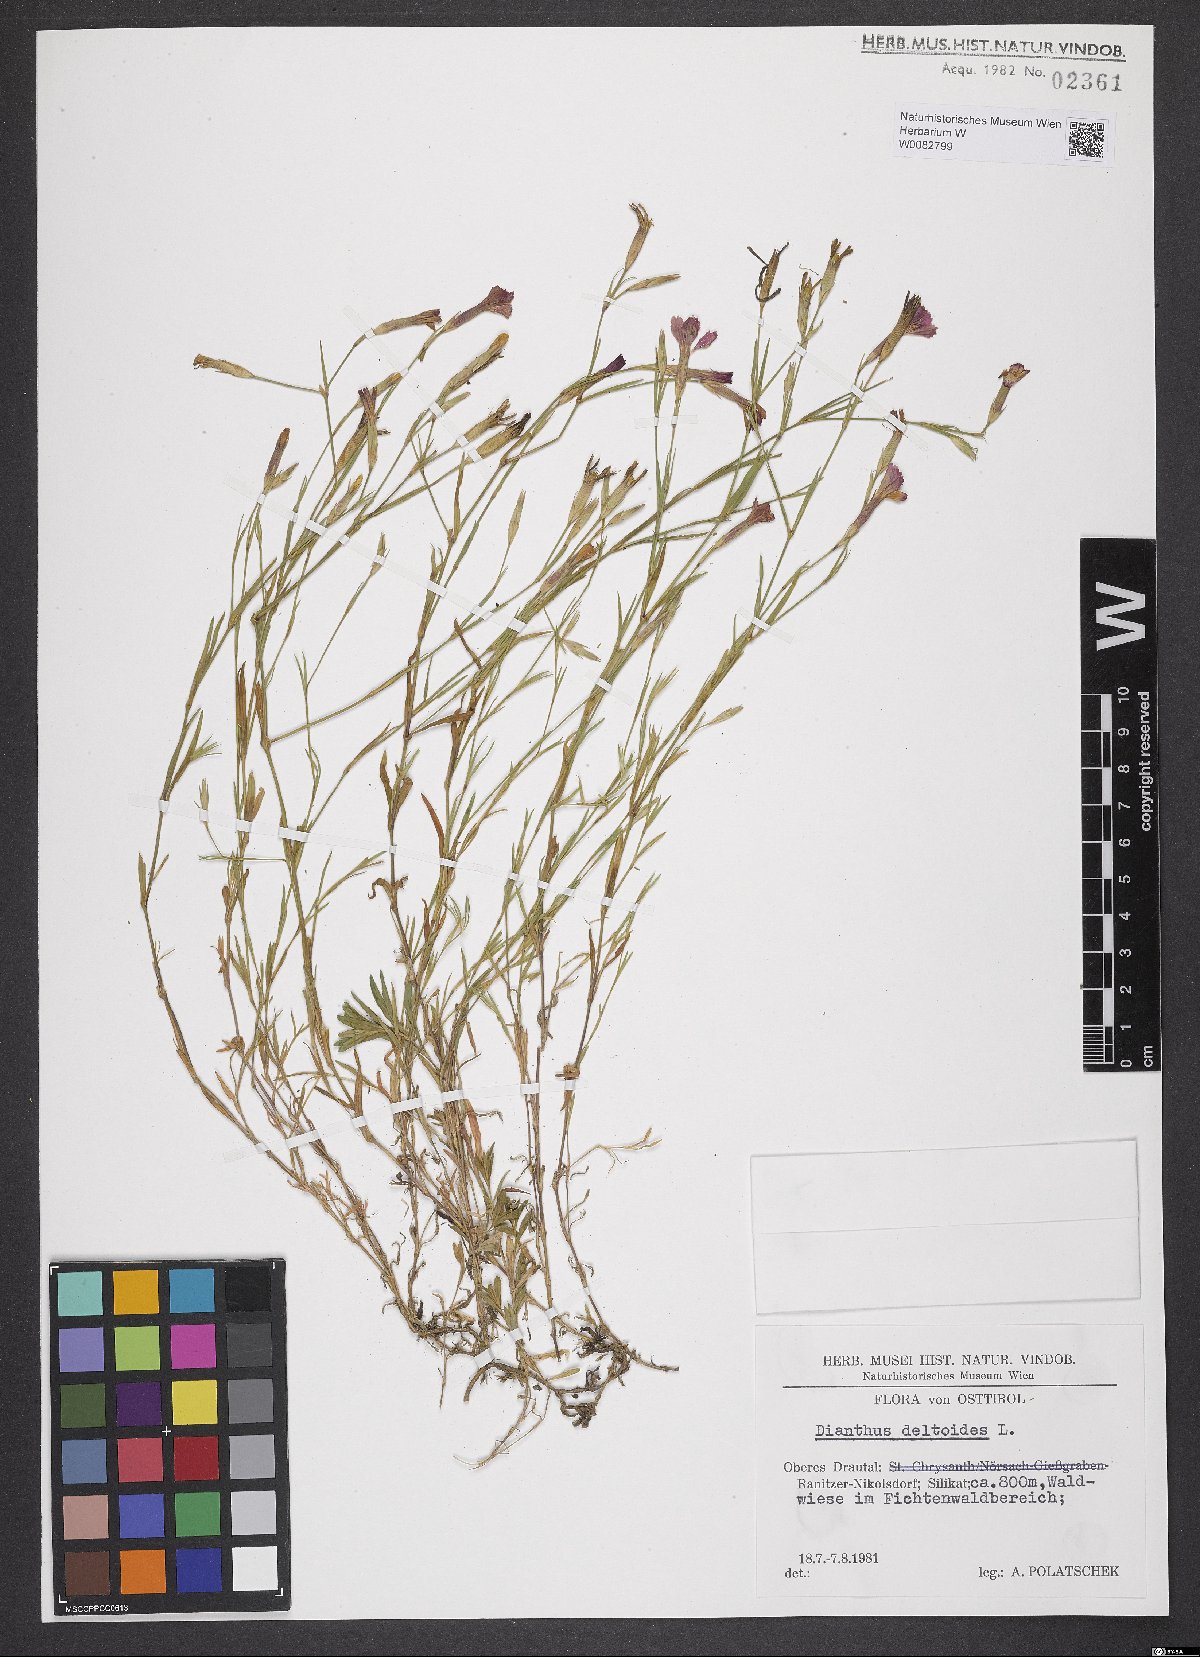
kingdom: Plantae
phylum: Tracheophyta
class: Magnoliopsida
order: Caryophyllales
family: Caryophyllaceae
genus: Dianthus
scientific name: Dianthus deltoides
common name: Maiden pink
